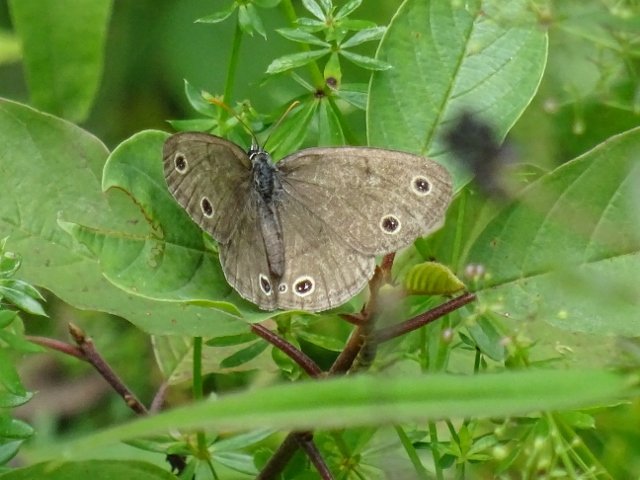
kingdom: Animalia
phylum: Arthropoda
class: Insecta
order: Lepidoptera
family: Nymphalidae
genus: Euptychia
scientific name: Euptychia cymela
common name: Little Wood Satyr
